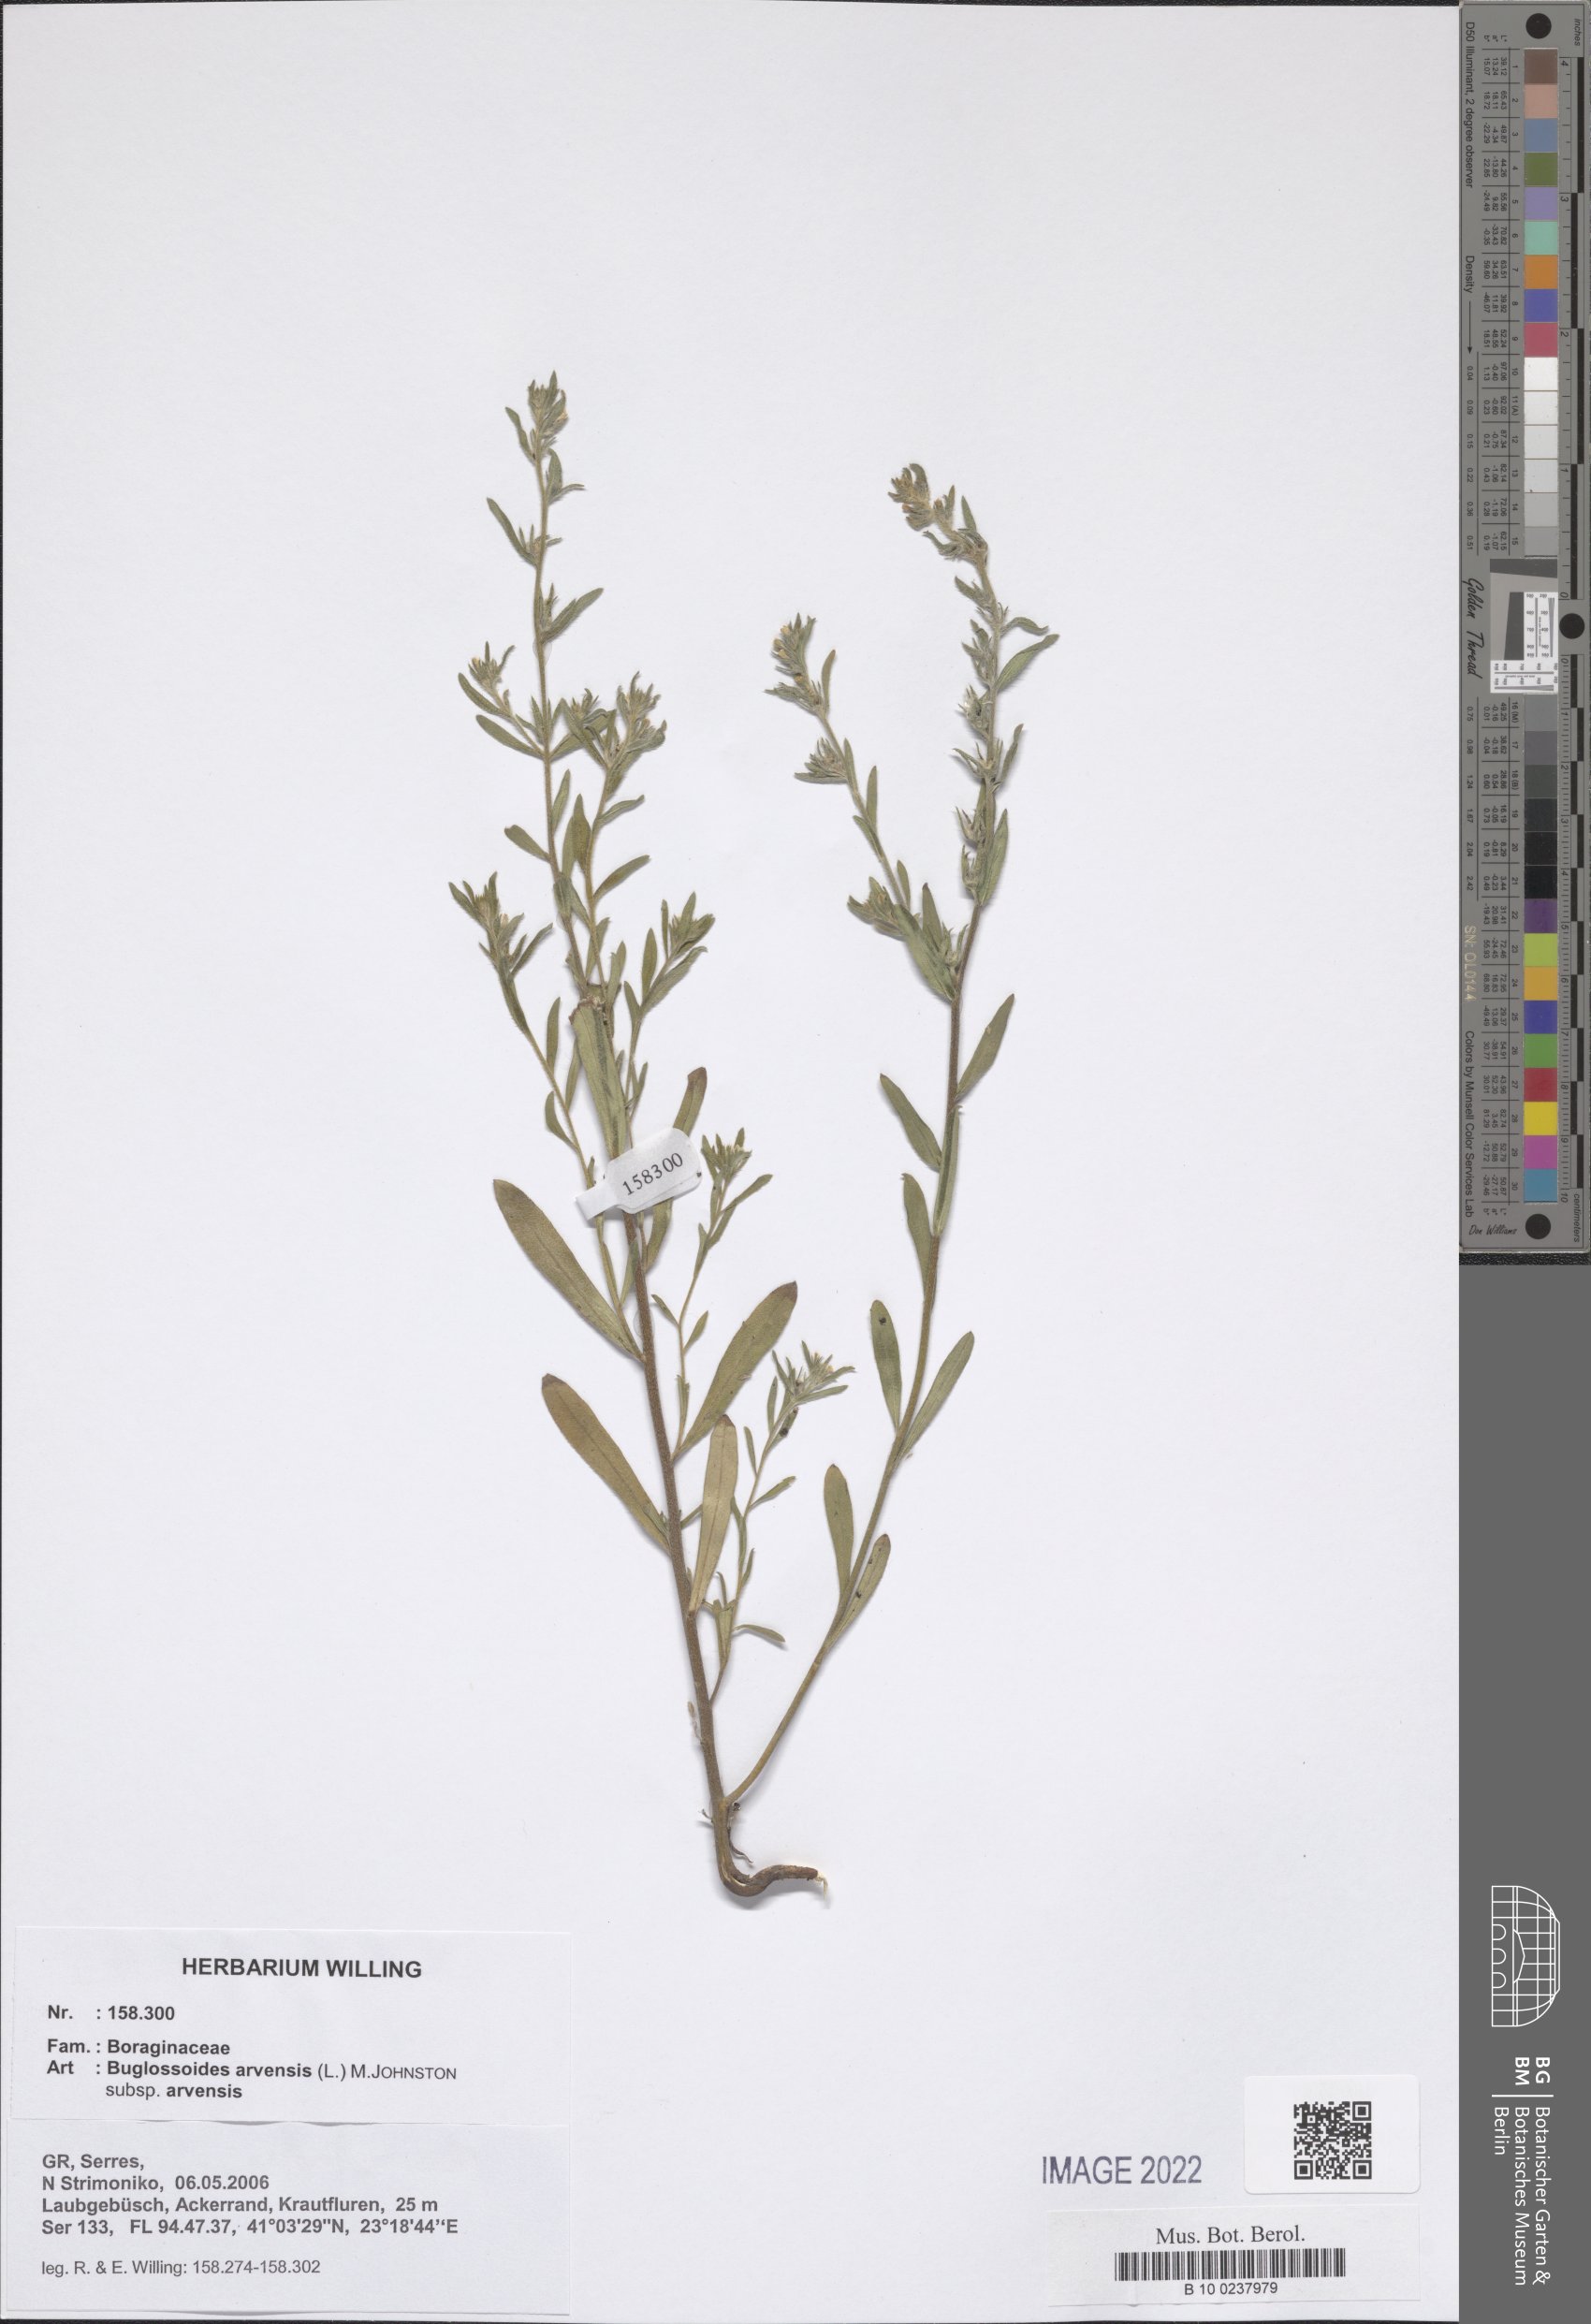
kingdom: Plantae
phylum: Tracheophyta
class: Magnoliopsida
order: Boraginales
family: Boraginaceae
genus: Buglossoides
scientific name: Buglossoides arvensis
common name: Corn gromwell
